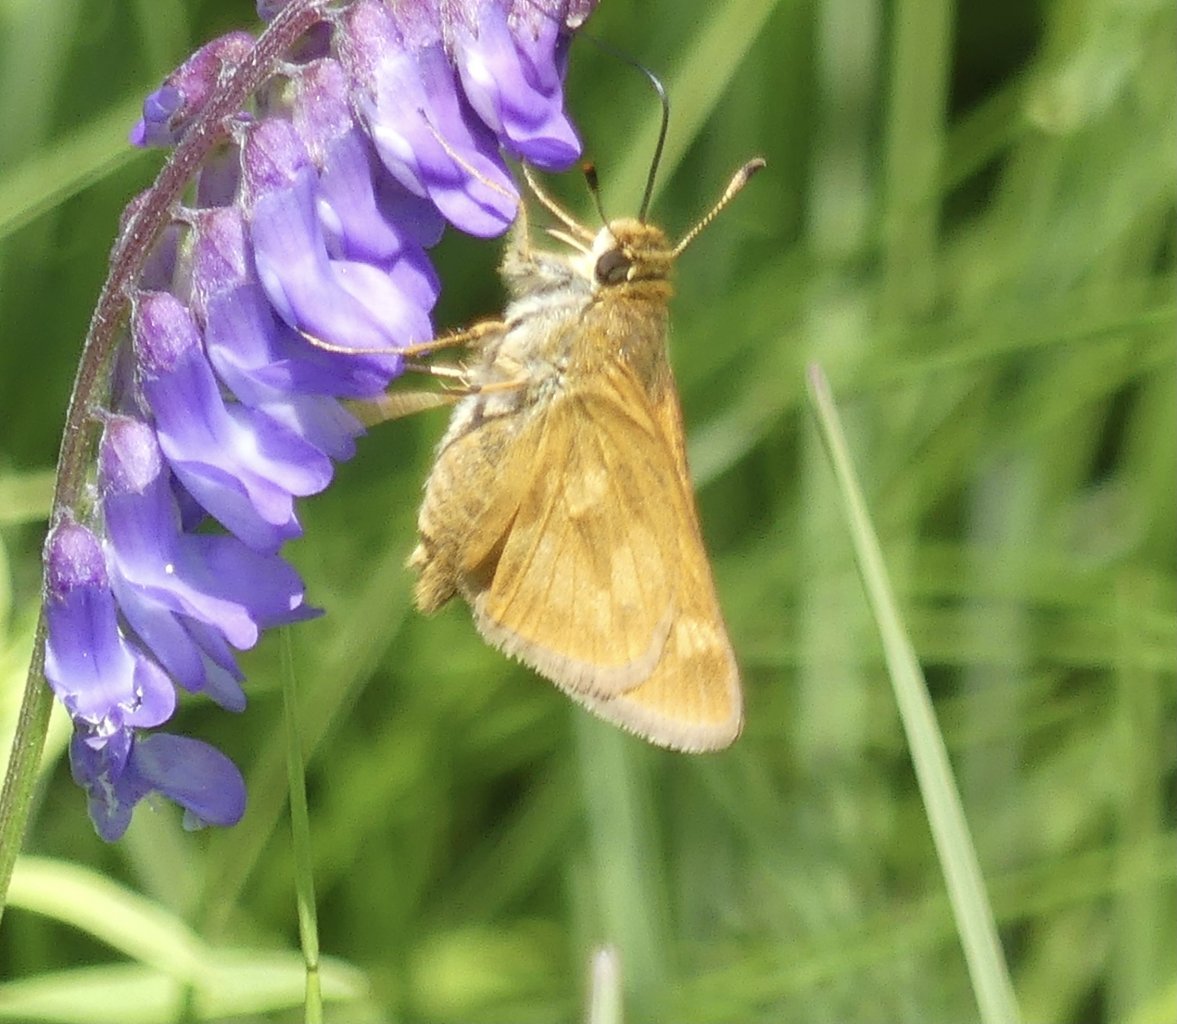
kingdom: Animalia
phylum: Arthropoda
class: Insecta
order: Lepidoptera
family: Hesperiidae
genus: Polites
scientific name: Polites
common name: Long Dash Skipper
